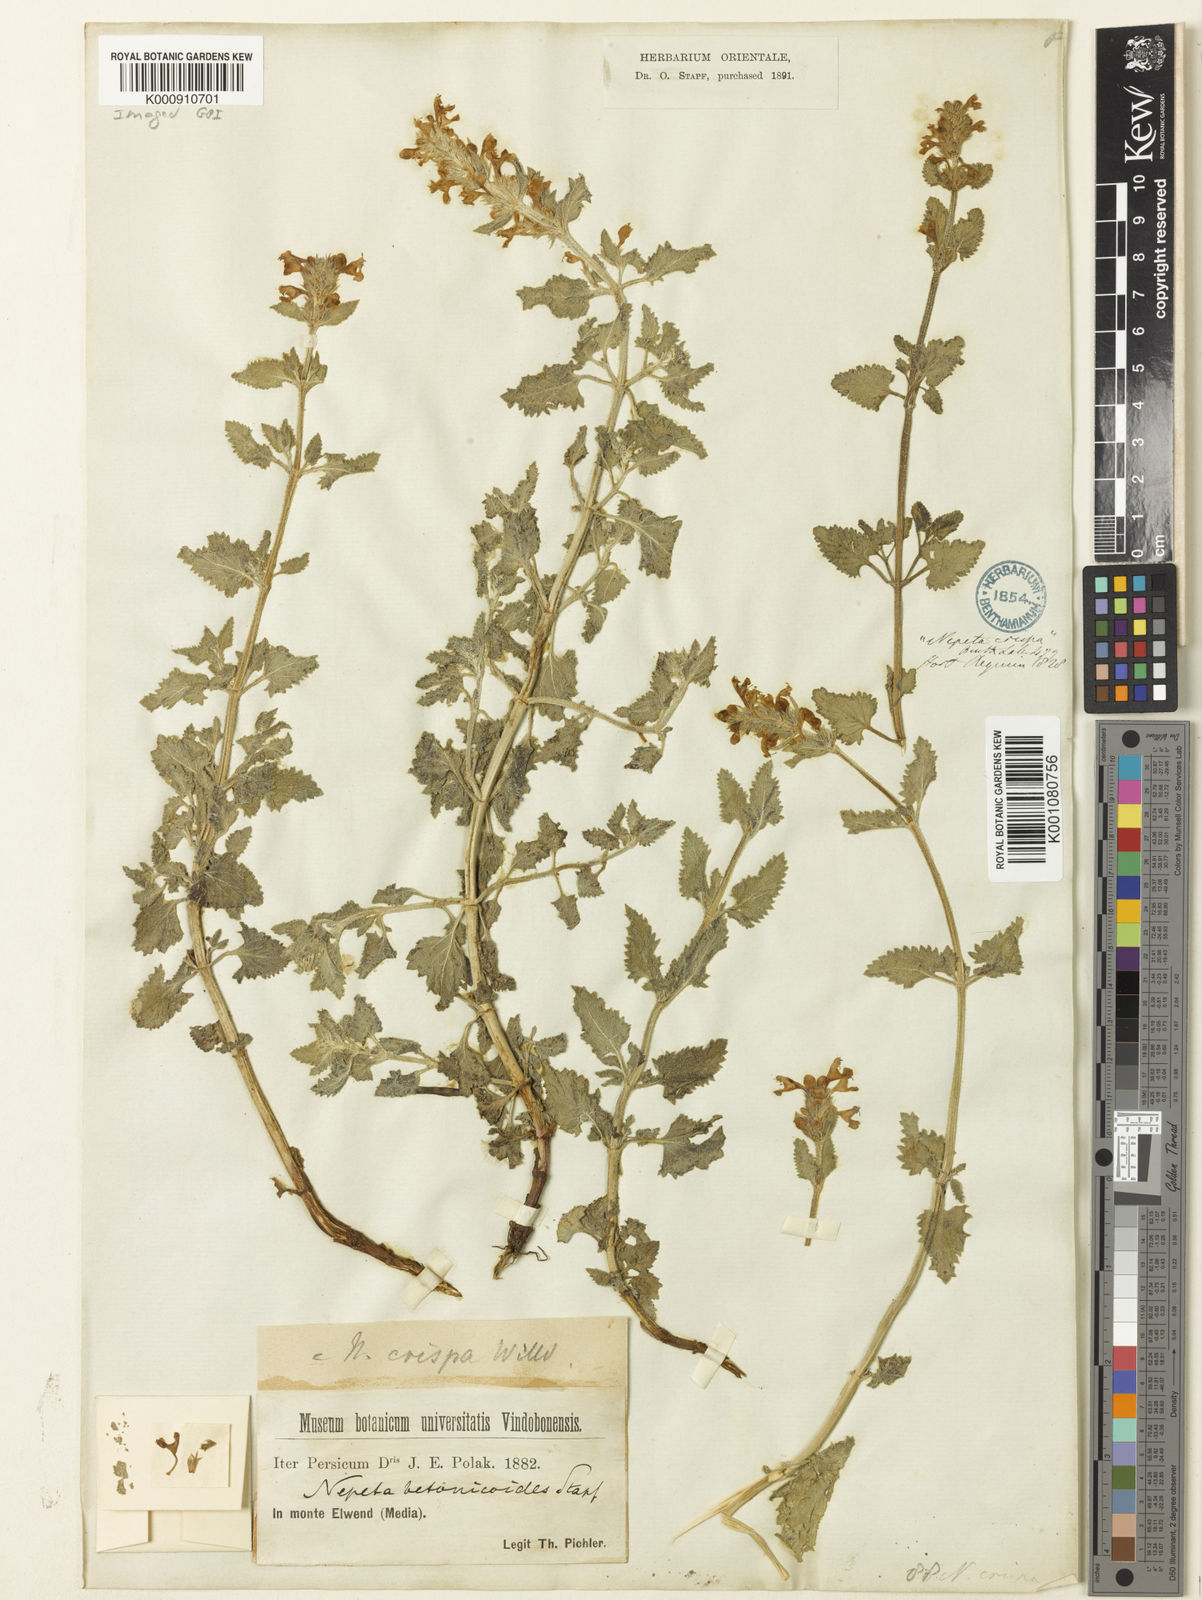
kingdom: Plantae
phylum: Tracheophyta
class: Magnoliopsida
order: Lamiales
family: Lamiaceae
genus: Nepeta
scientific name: Nepeta crispa
